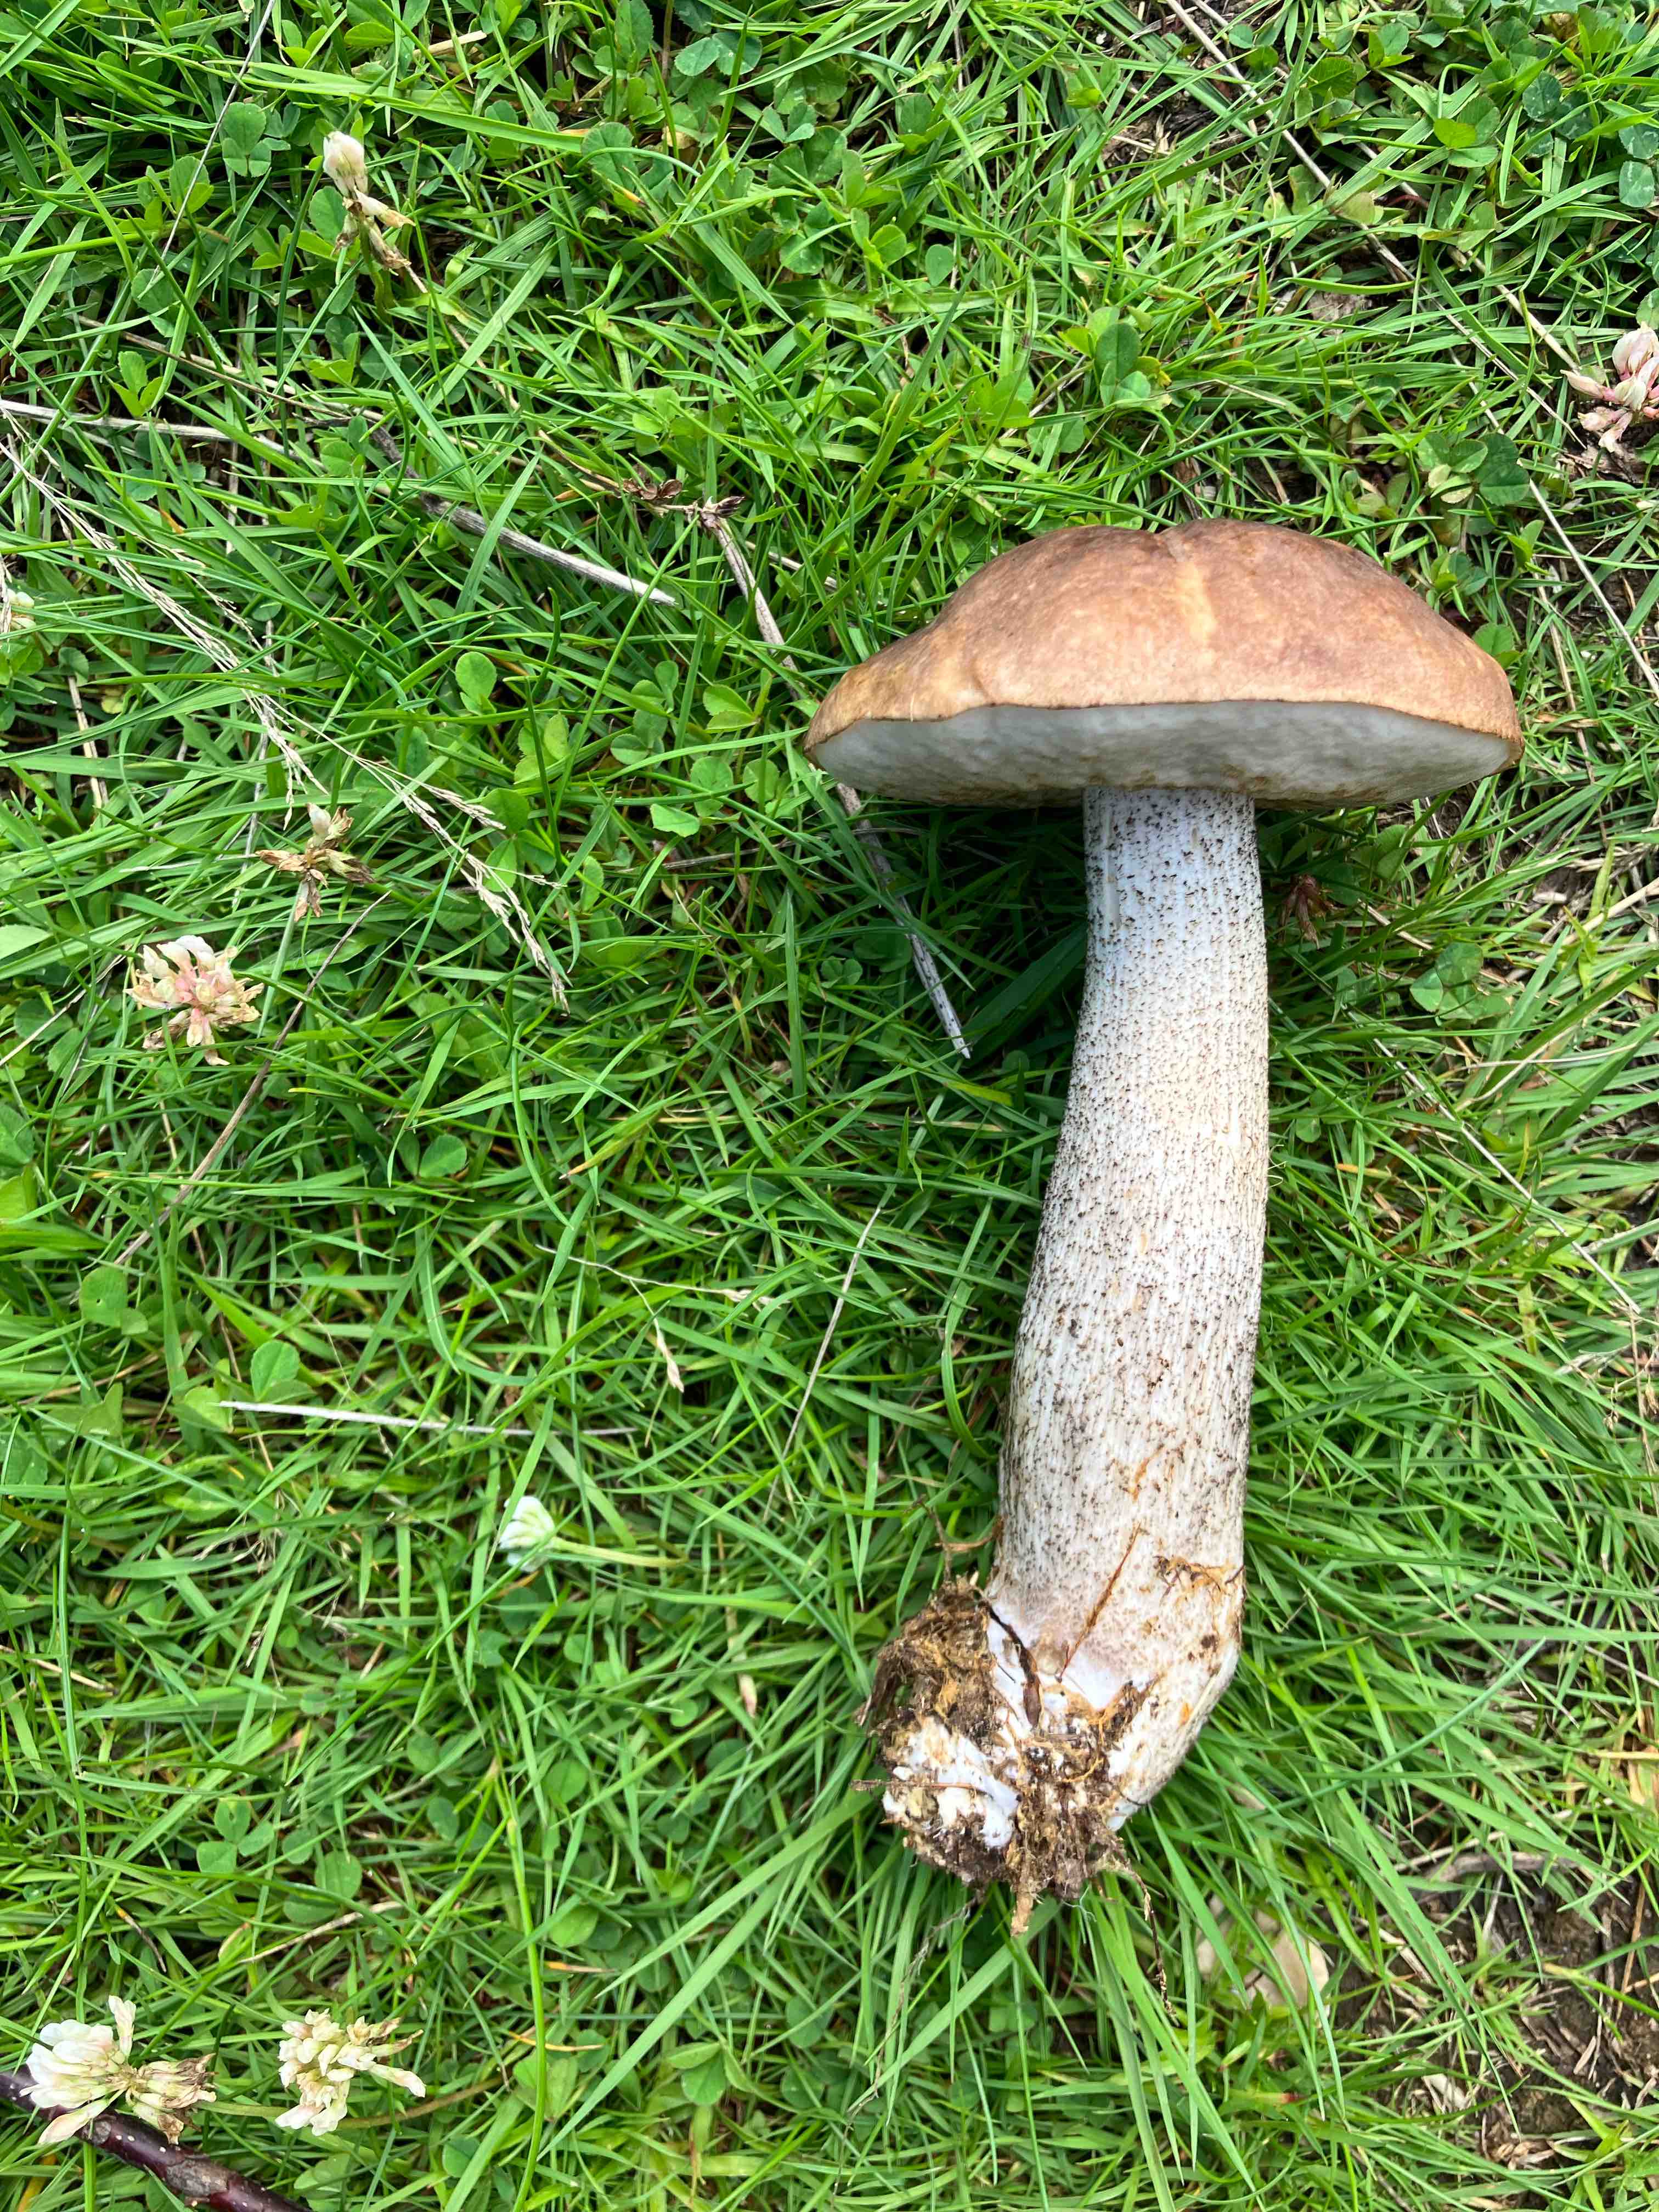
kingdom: Fungi
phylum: Basidiomycota
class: Agaricomycetes
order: Boletales
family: Boletaceae
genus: Leccinum
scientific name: Leccinum scabrum
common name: brun skælrørhat
